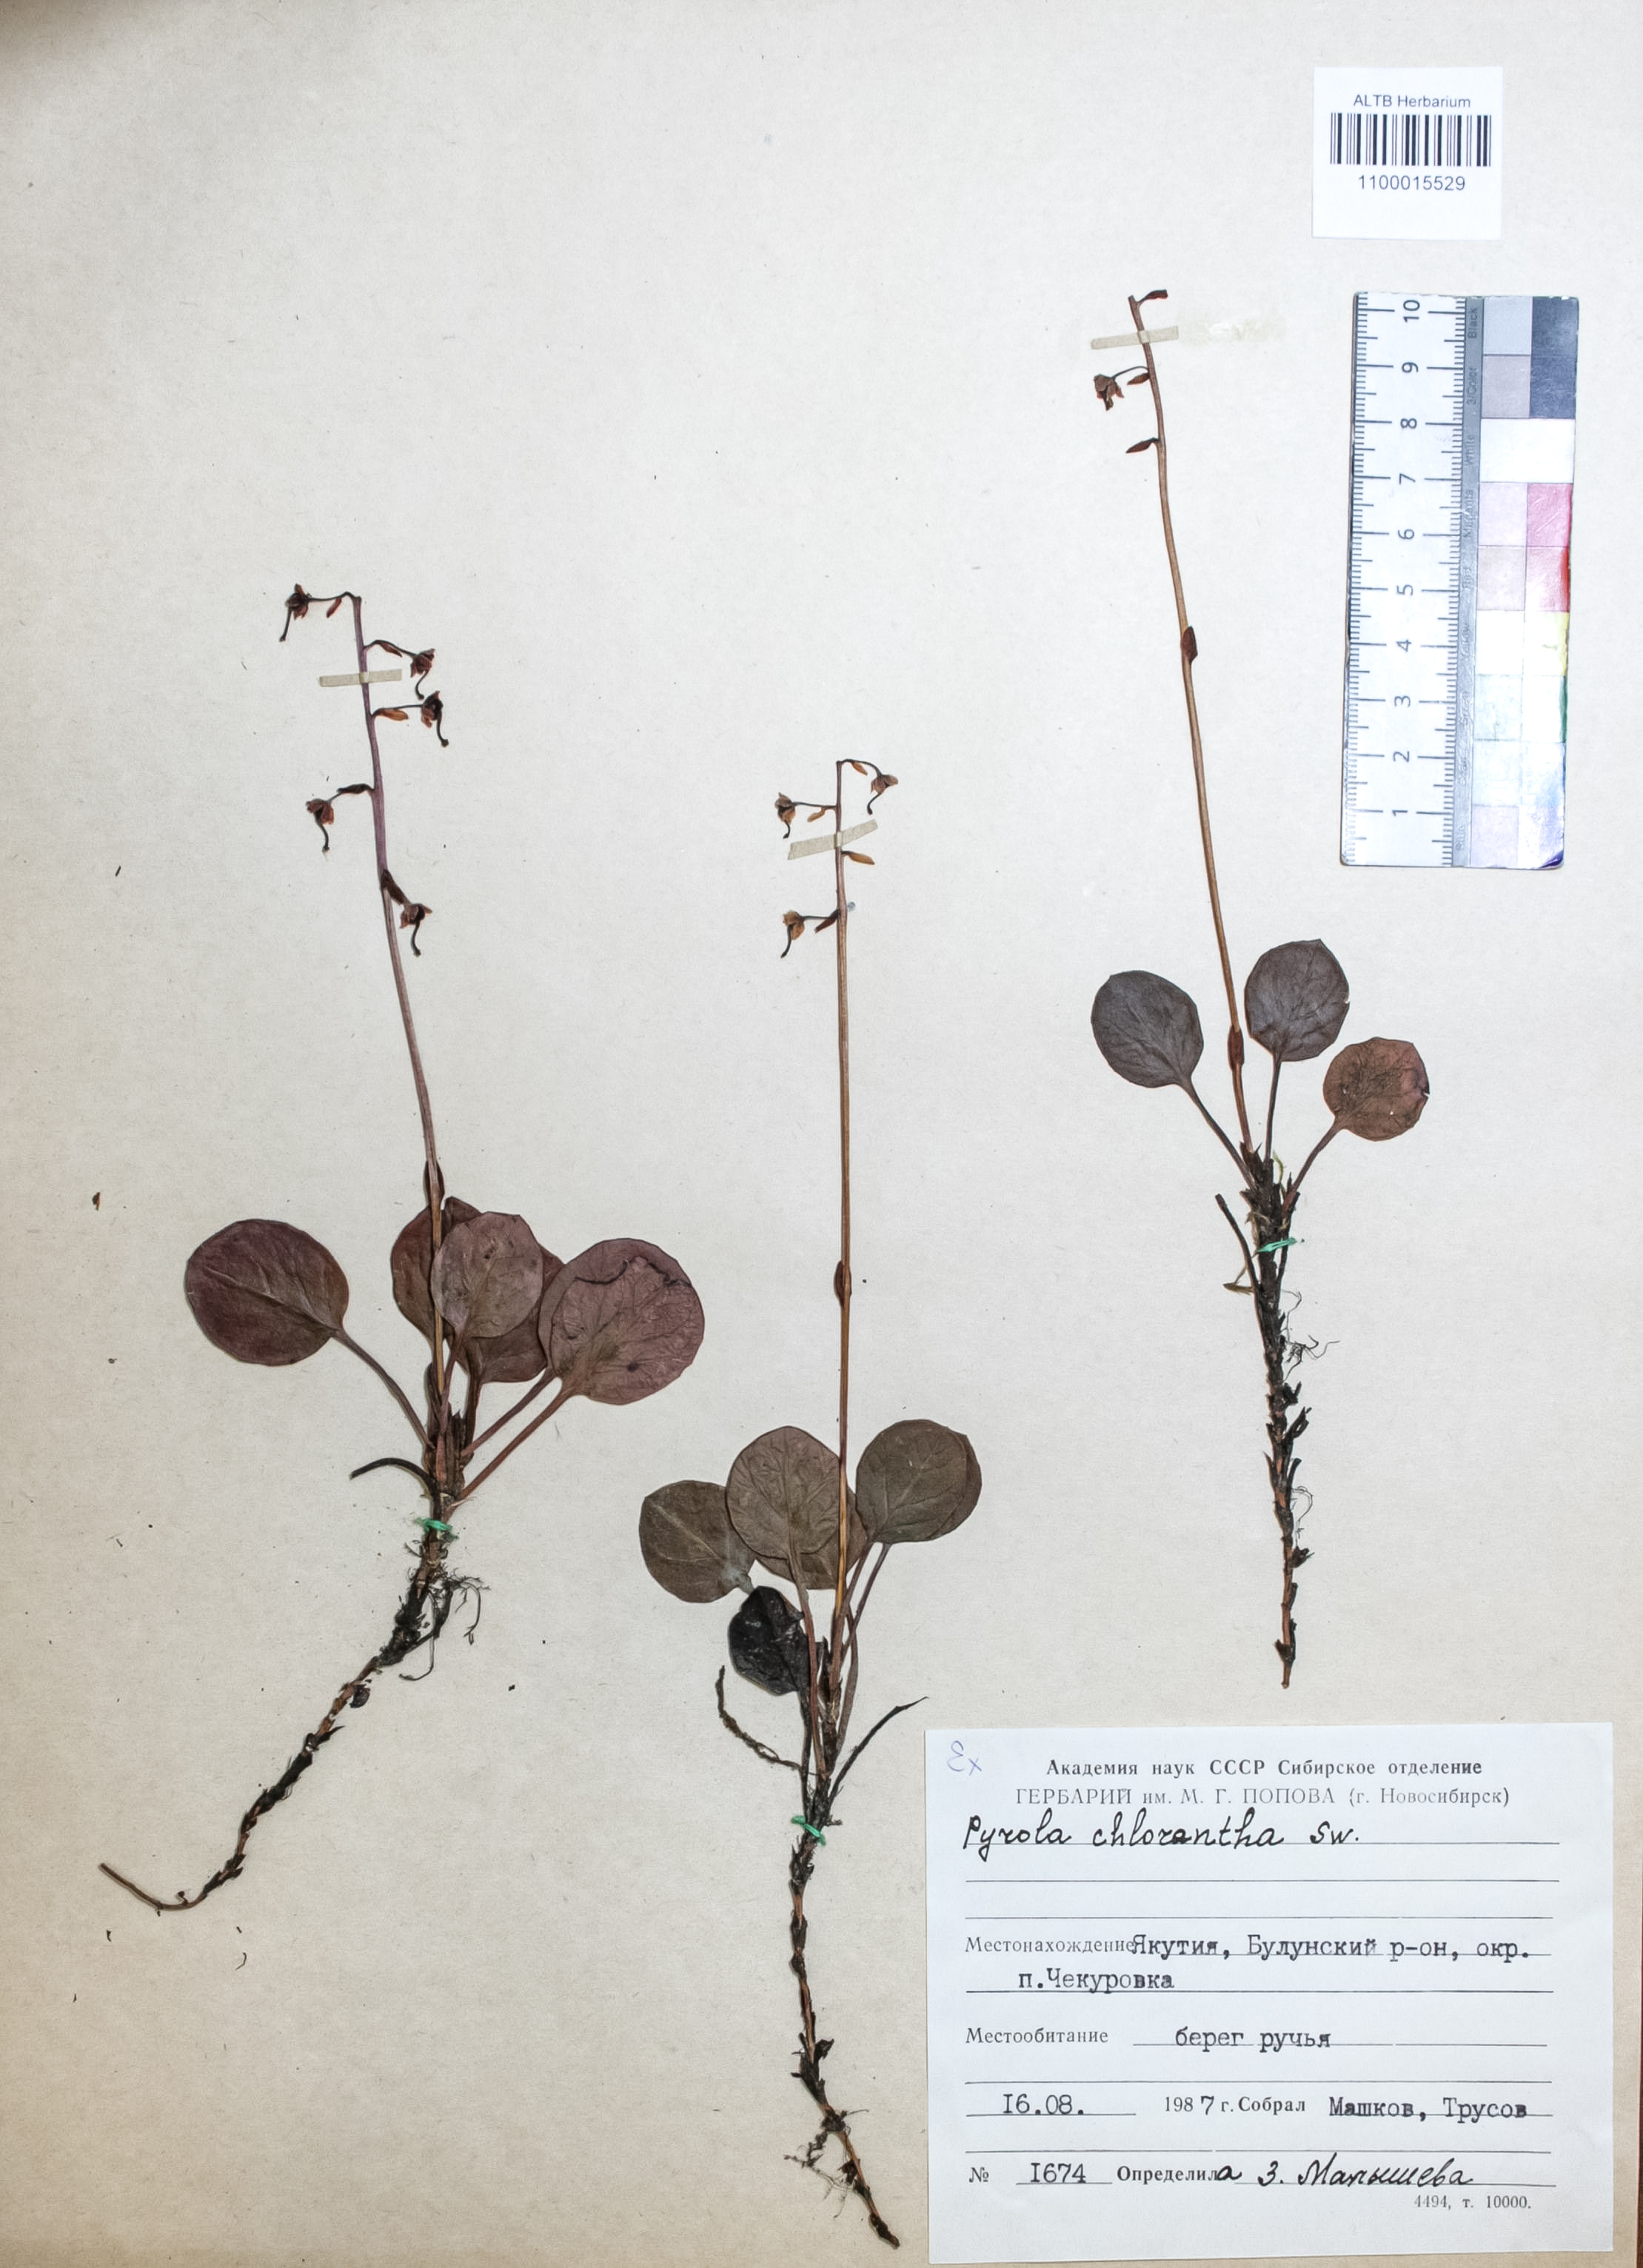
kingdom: Plantae
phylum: Tracheophyta
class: Magnoliopsida
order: Ericales
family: Ericaceae
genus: Pyrola
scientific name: Pyrola chlorantha
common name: Green wintergreen
